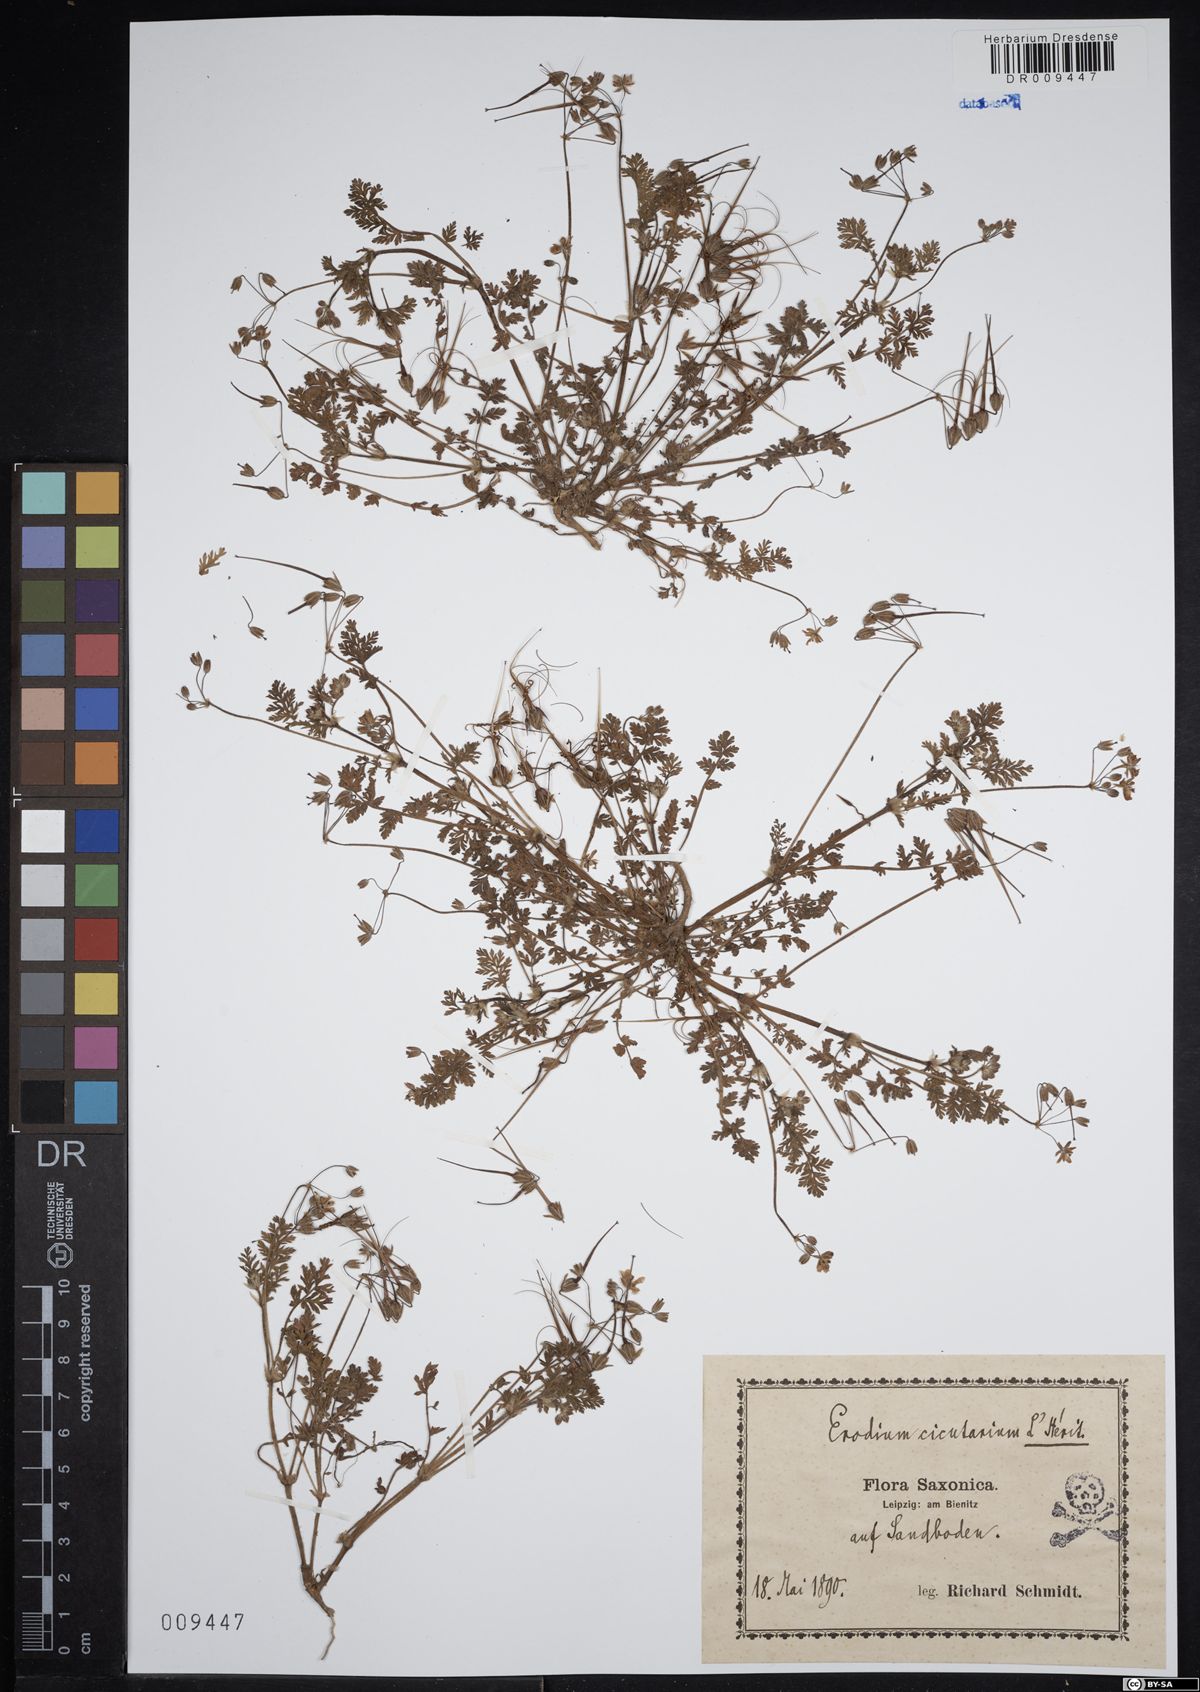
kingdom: Plantae
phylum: Tracheophyta
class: Magnoliopsida
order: Geraniales
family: Geraniaceae
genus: Erodium
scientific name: Erodium cicutarium
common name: Common stork's-bill
